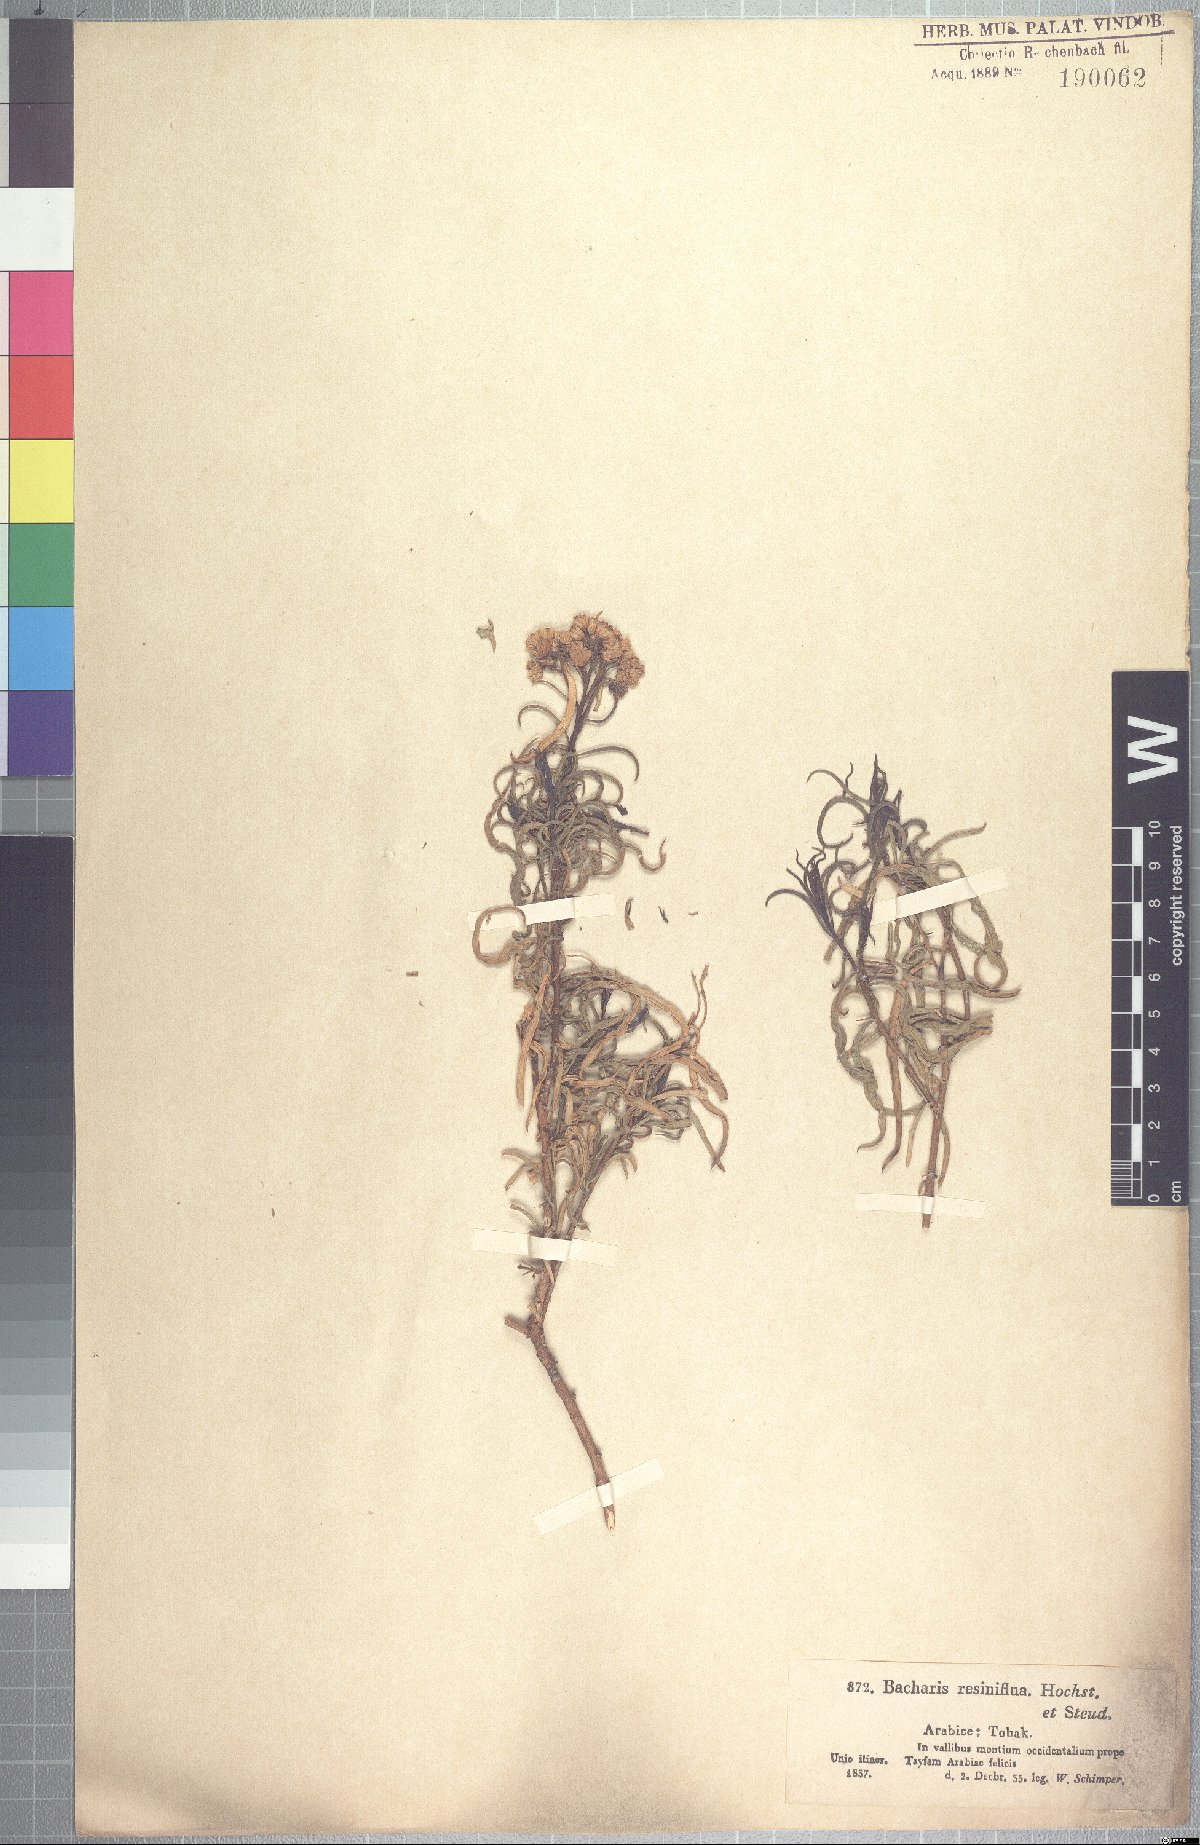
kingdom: Plantae
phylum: Tracheophyta
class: Magnoliopsida
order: Asterales
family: Asteraceae
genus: Psiadia
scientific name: Psiadia punctulata
